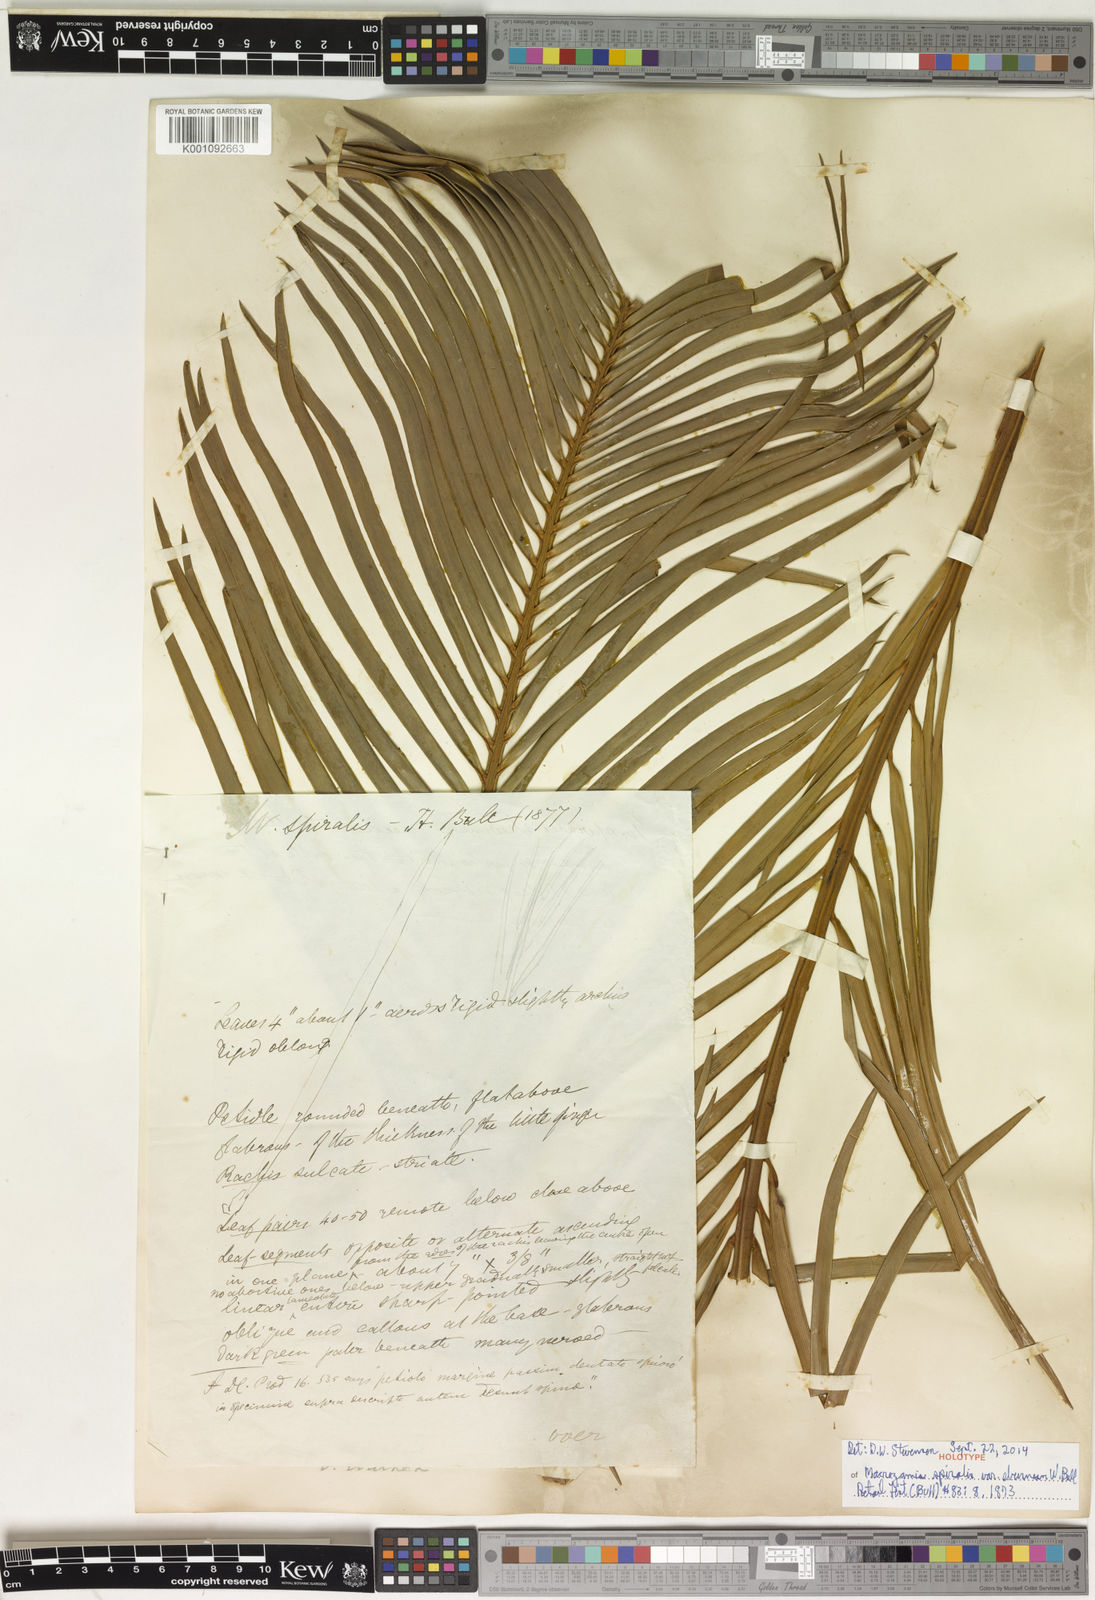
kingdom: Plantae
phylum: Tracheophyta
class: Cycadopsida
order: Cycadales
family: Zamiaceae
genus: Macrozamia
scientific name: Macrozamia miquelii
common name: Wild pineapple
